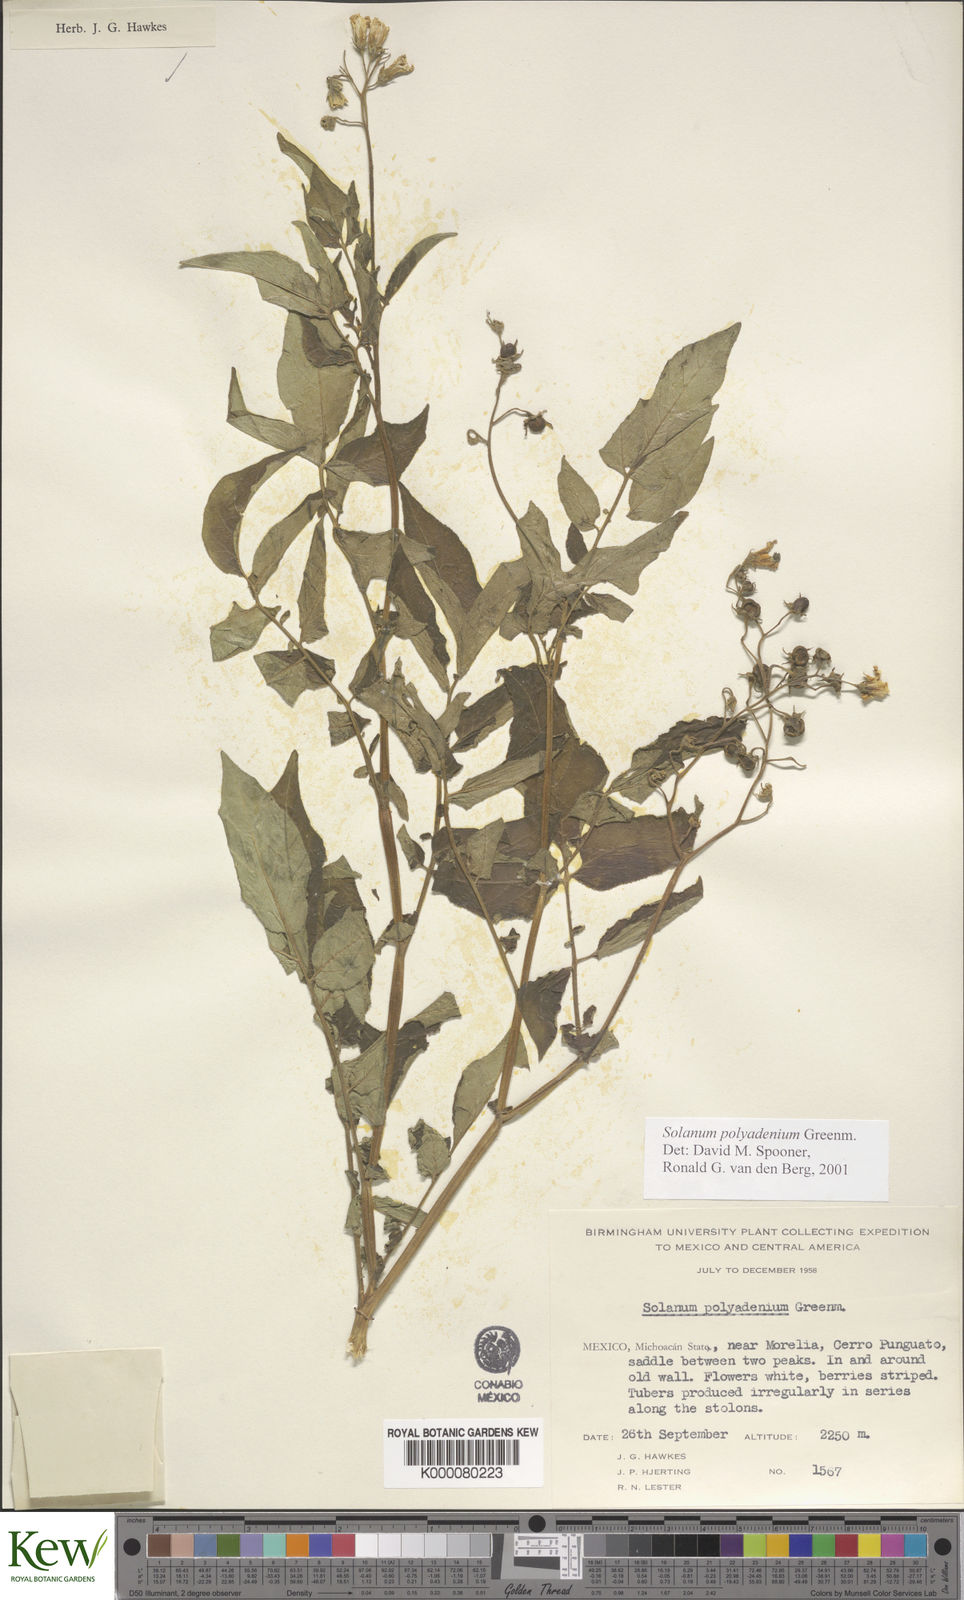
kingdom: Plantae
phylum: Tracheophyta
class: Magnoliopsida
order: Solanales
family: Solanaceae
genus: Solanum
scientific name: Solanum polyadenium
